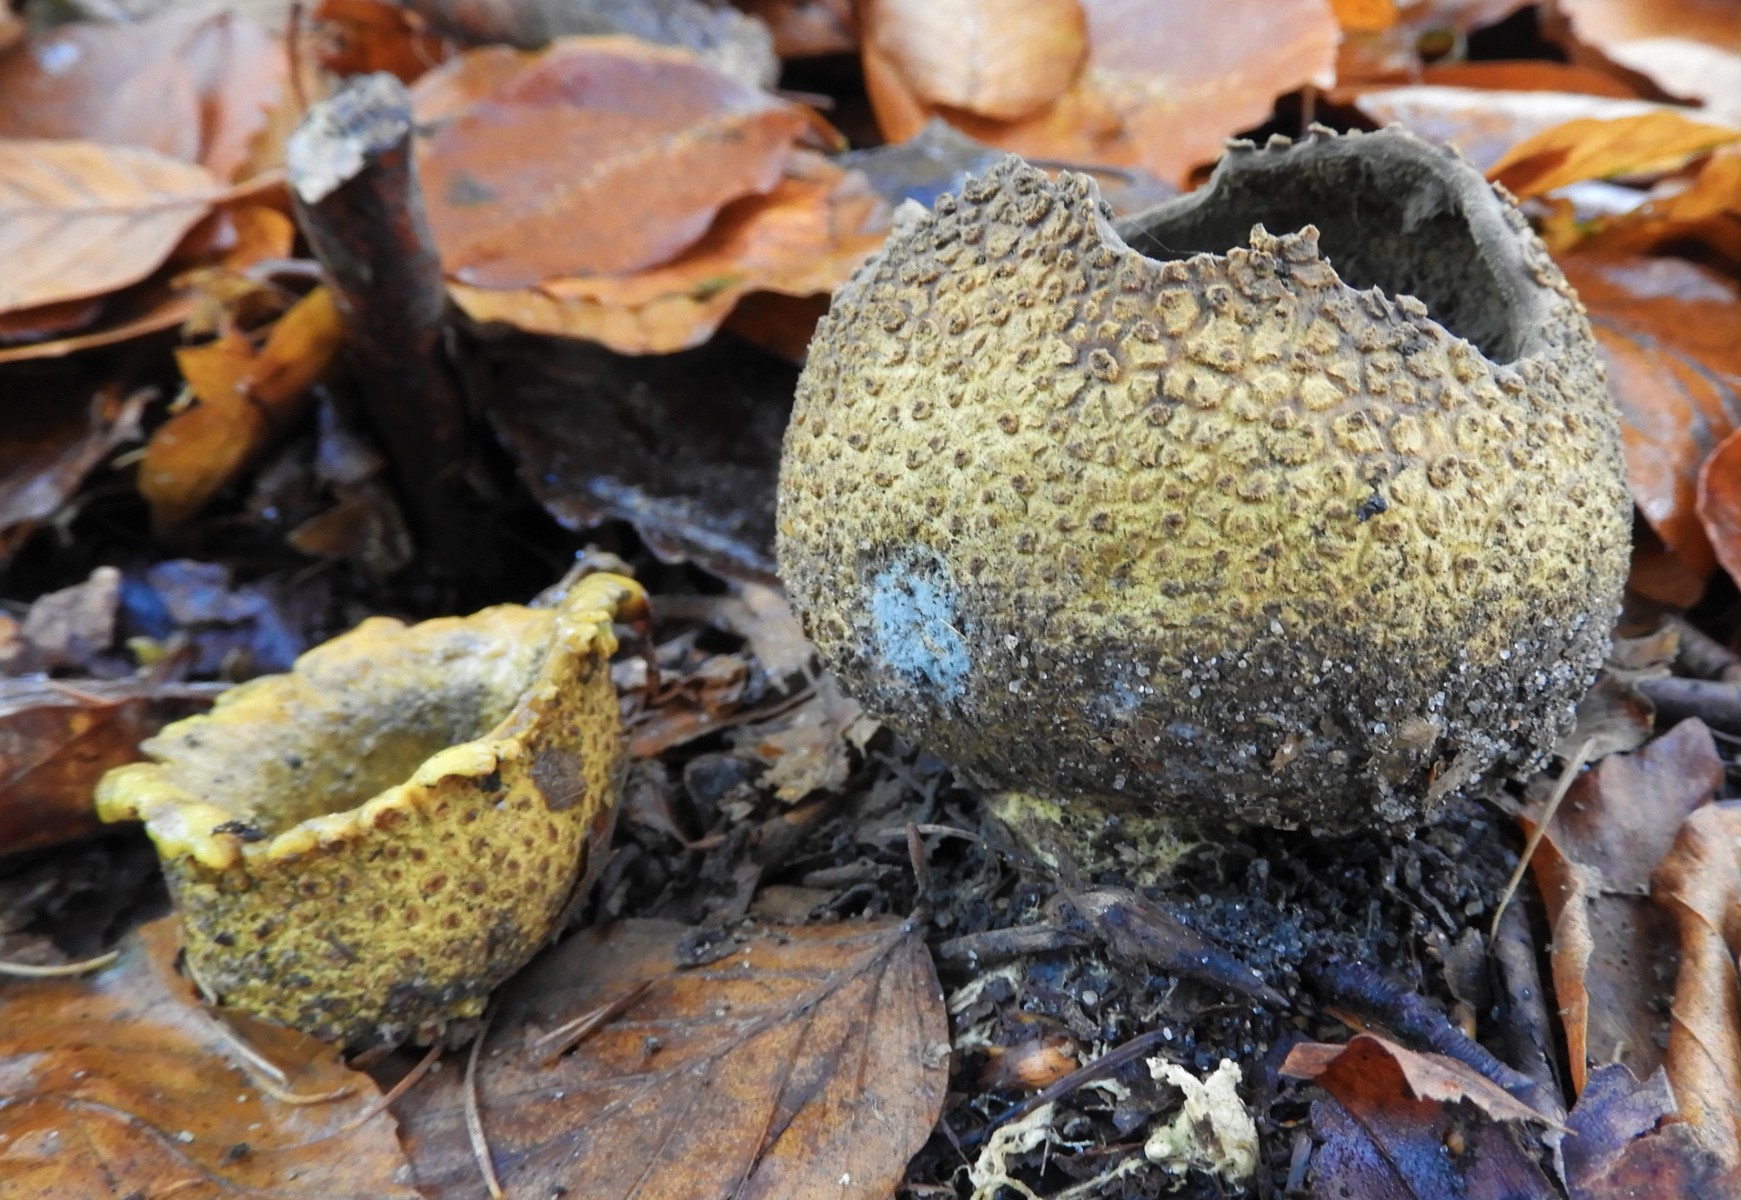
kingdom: Fungi
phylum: Basidiomycota
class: Agaricomycetes
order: Boletales
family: Sclerodermataceae
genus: Scleroderma
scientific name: Scleroderma citrinum
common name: almindelig bruskbold
